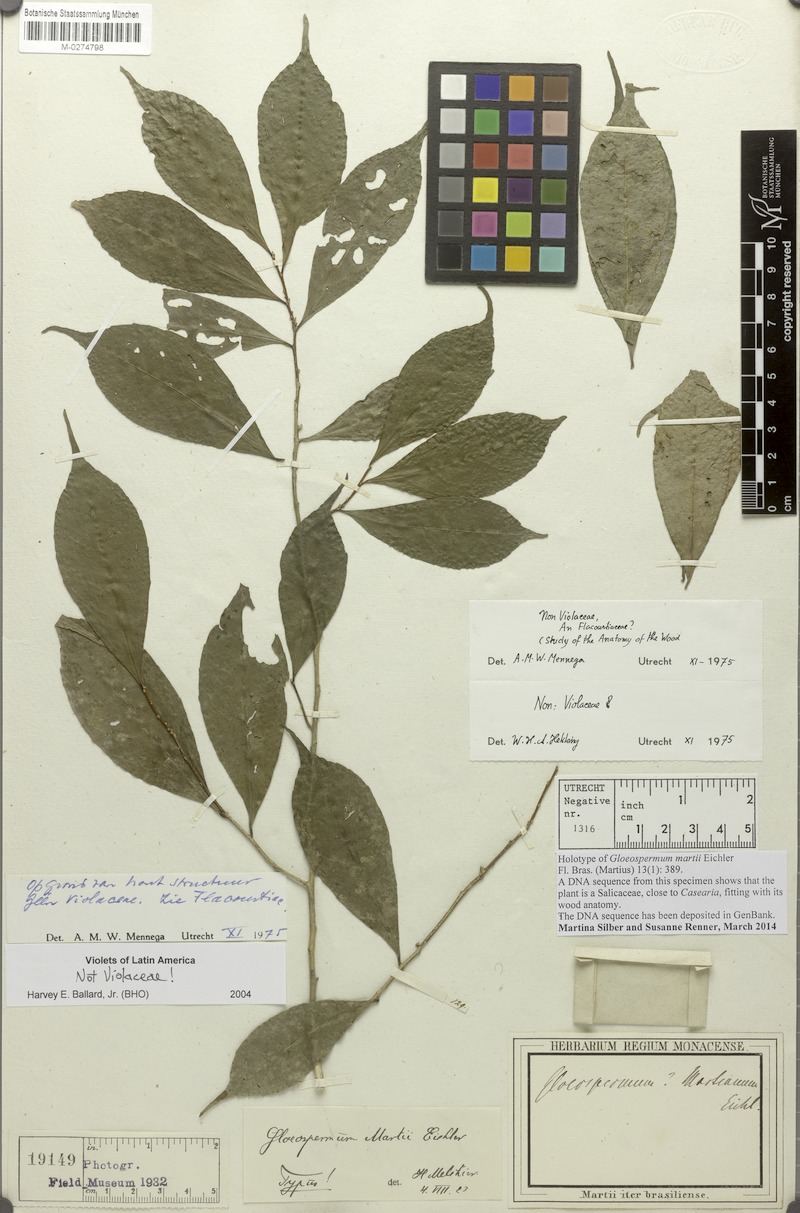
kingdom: Plantae
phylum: Tracheophyta
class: Magnoliopsida
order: Malpighiales
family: Violaceae
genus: Gloeospermum
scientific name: Gloeospermum sphaerocarpum
